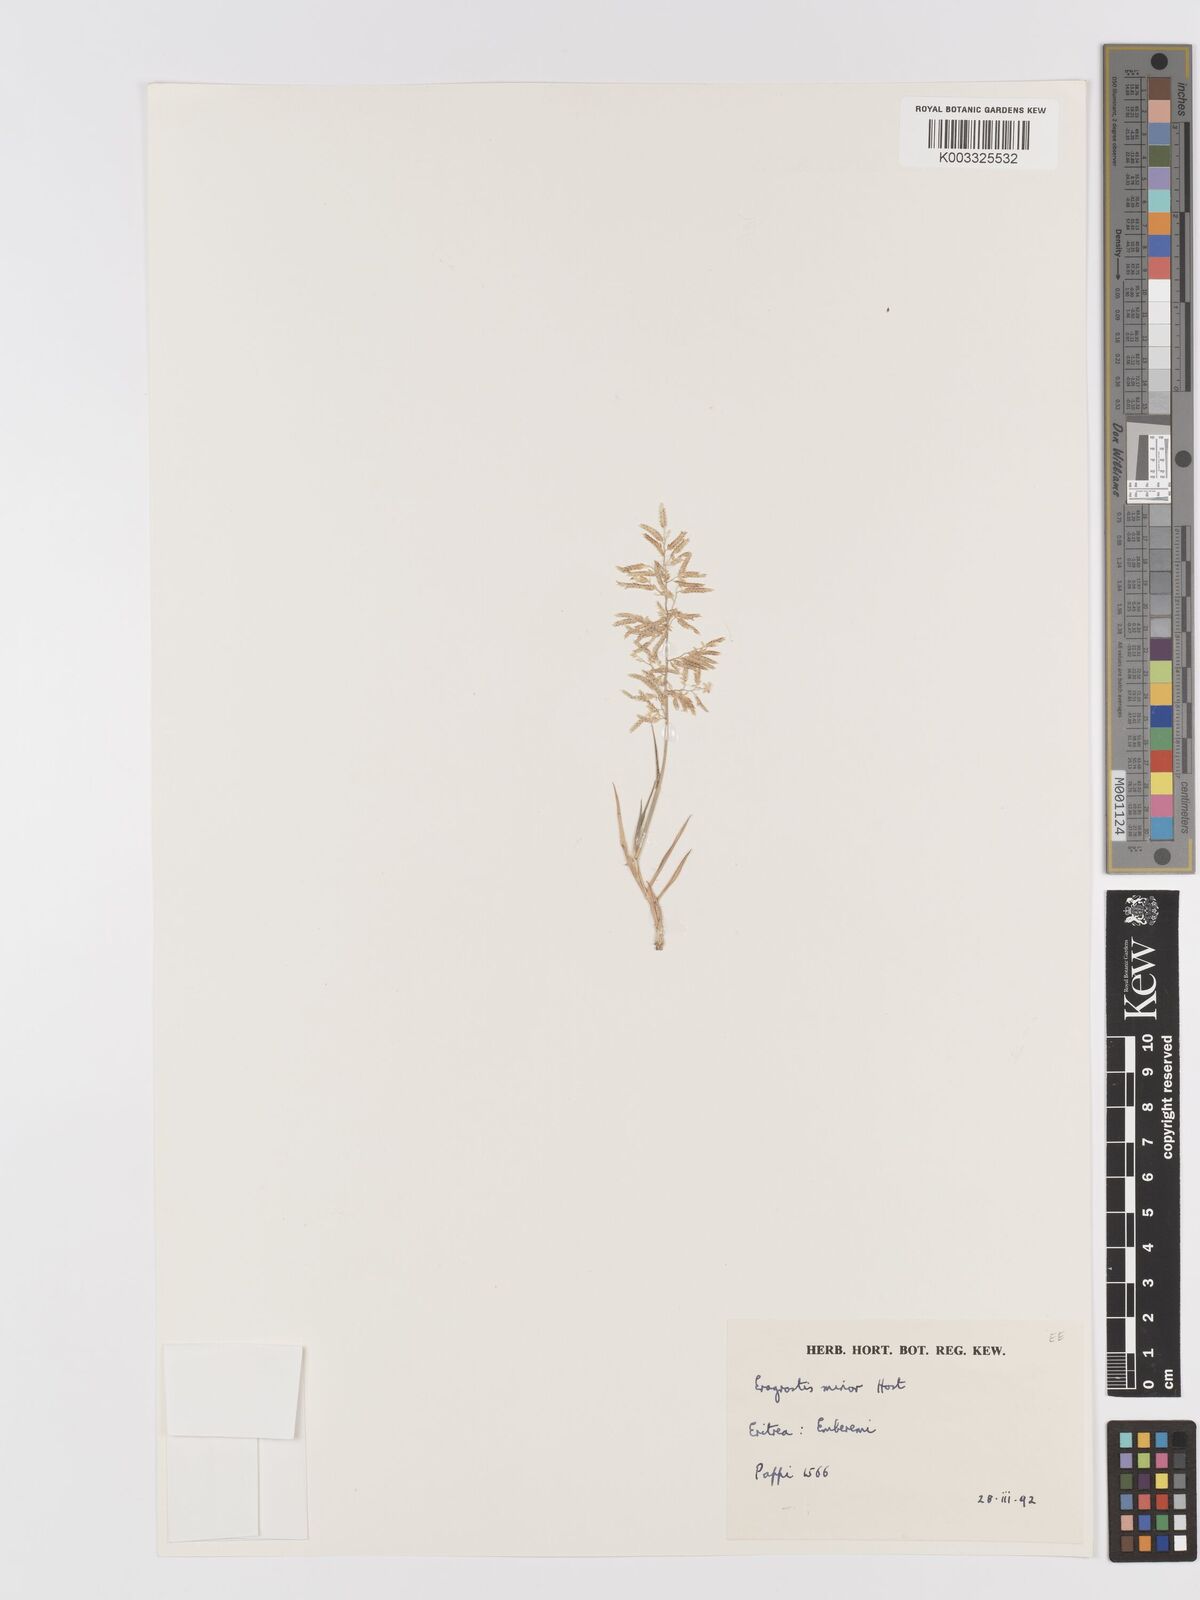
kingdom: Plantae
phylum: Tracheophyta
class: Liliopsida
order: Poales
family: Poaceae
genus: Eragrostis
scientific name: Eragrostis minor
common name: Small love-grass
